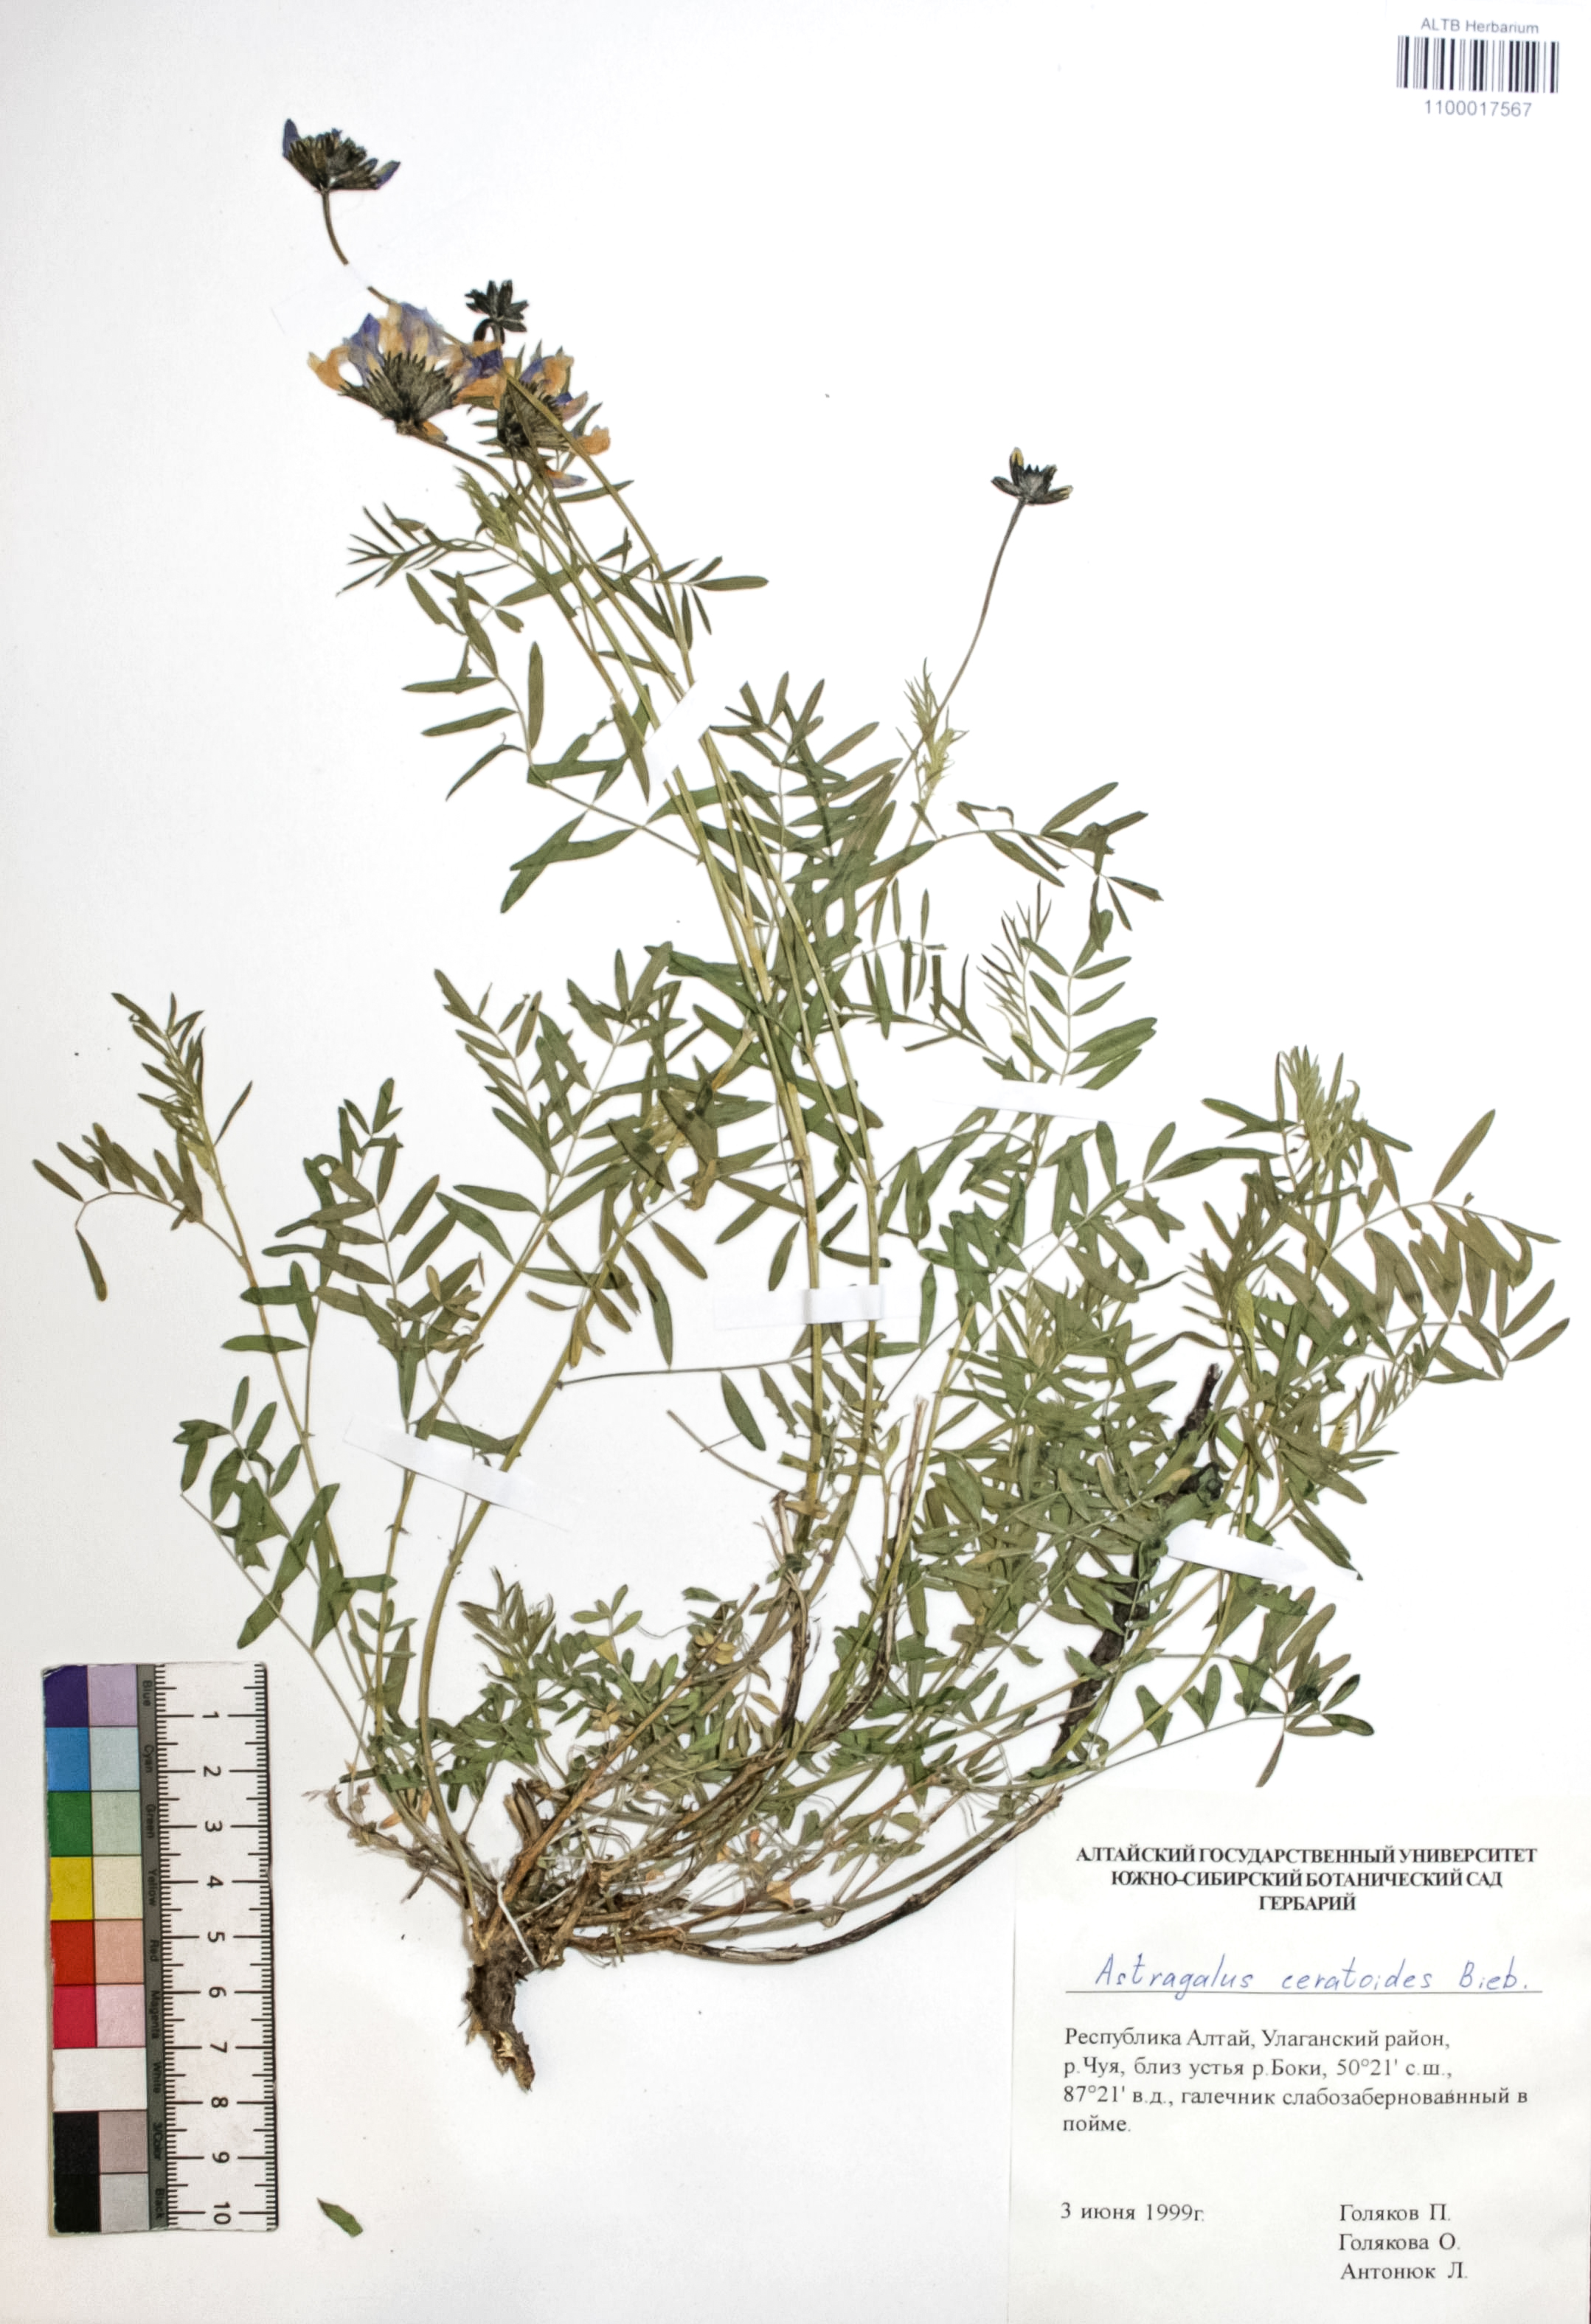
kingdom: Plantae
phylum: Tracheophyta
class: Magnoliopsida
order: Fabales
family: Fabaceae
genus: Astragalus
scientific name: Astragalus ceratoides
